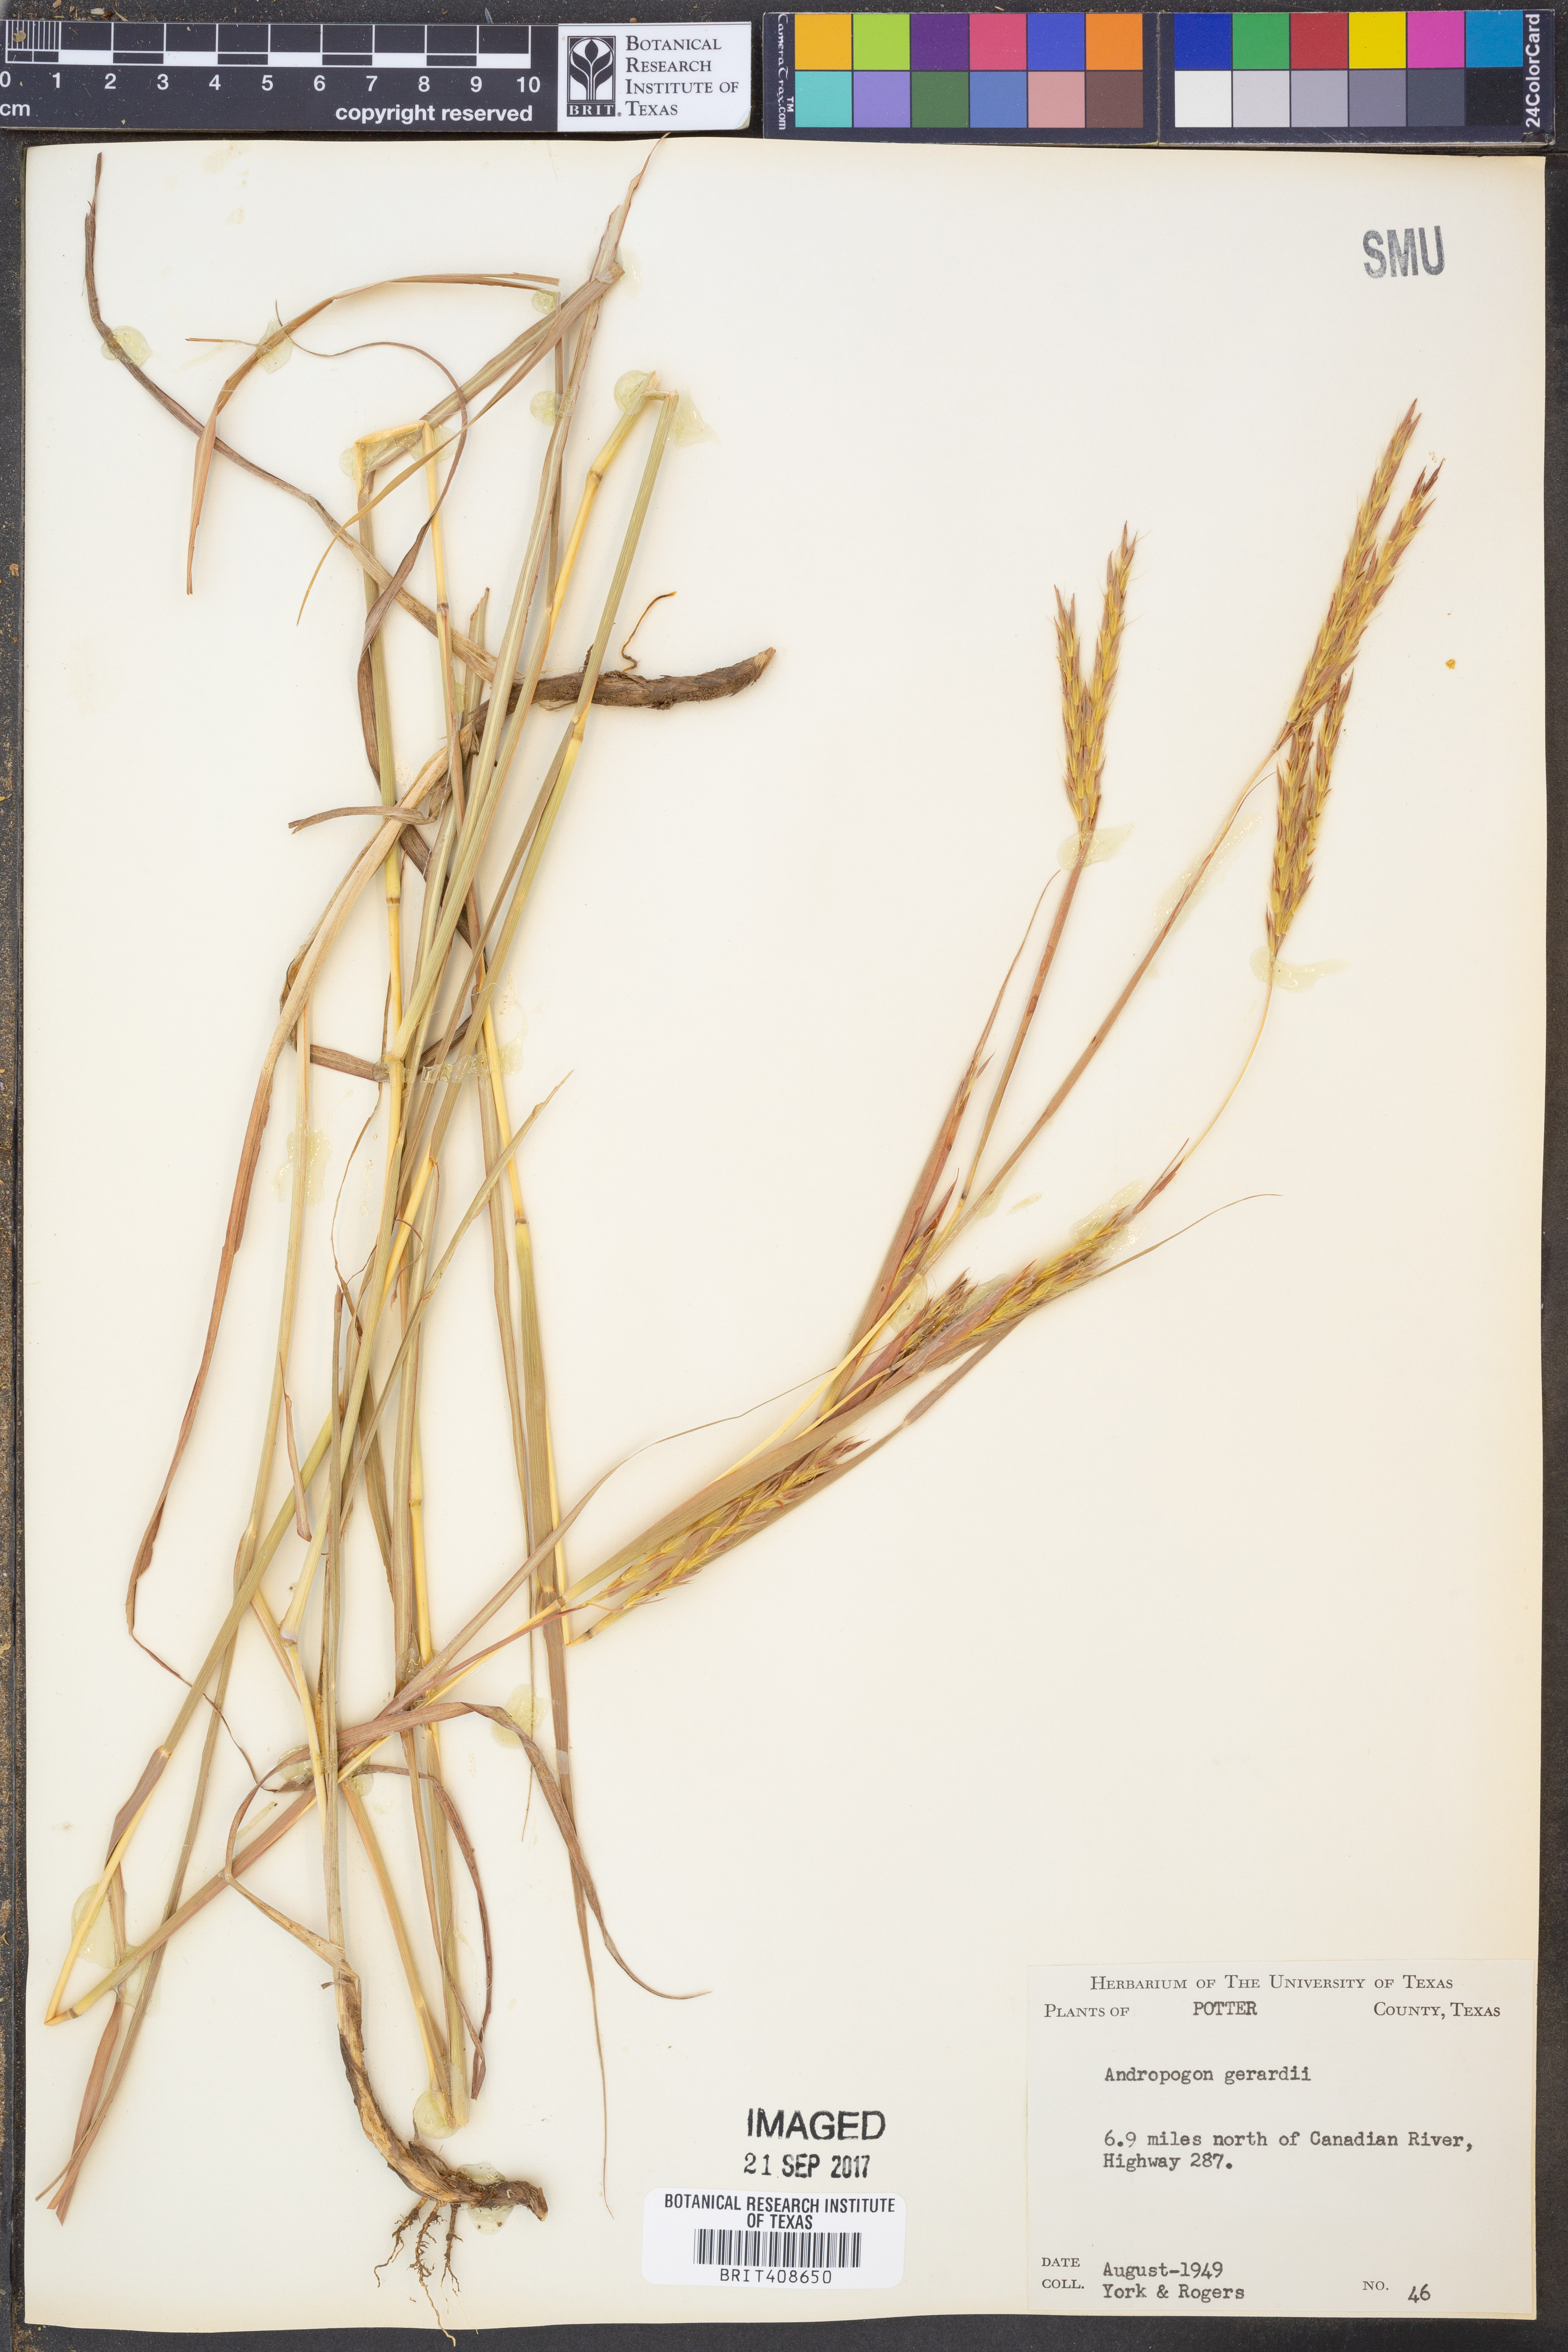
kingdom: Plantae
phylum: Tracheophyta
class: Liliopsida
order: Poales
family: Poaceae
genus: Andropogon
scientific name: Andropogon gerardi
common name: Big bluestem
